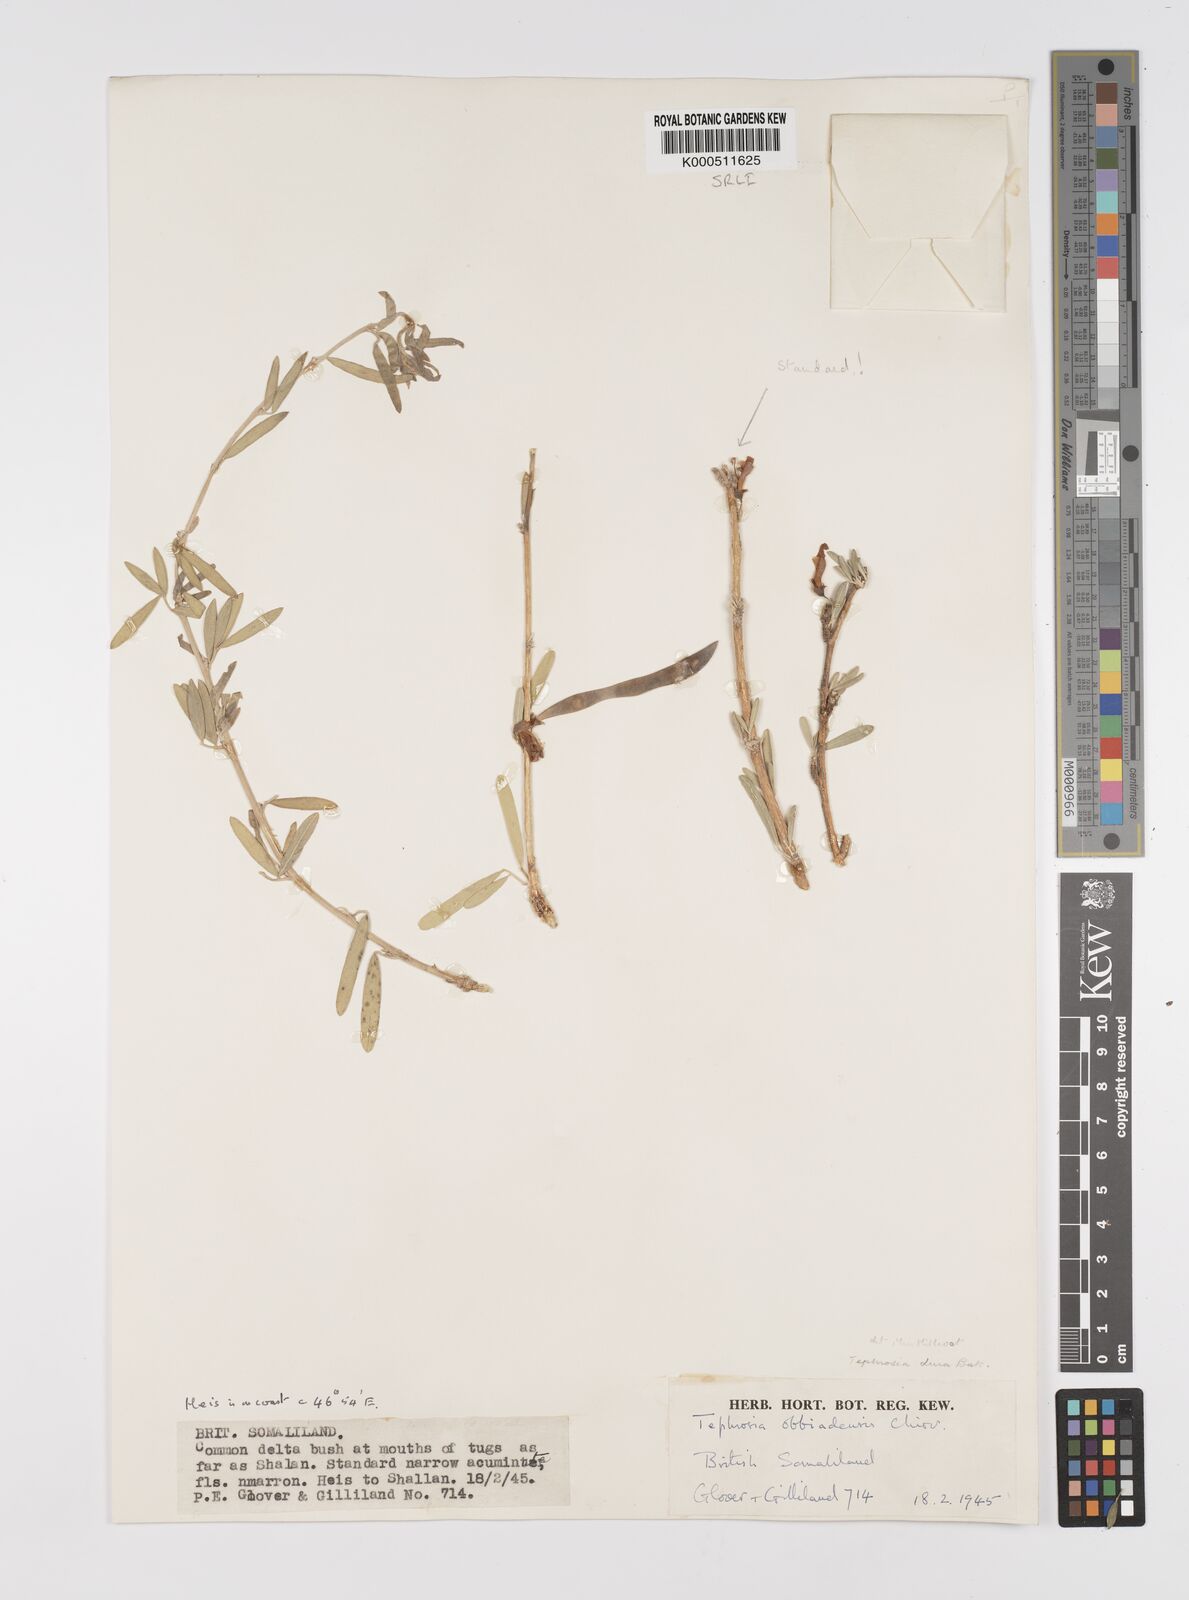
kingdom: Plantae
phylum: Tracheophyta
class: Magnoliopsida
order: Fabales
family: Fabaceae
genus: Tephrosia
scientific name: Tephrosia dura
